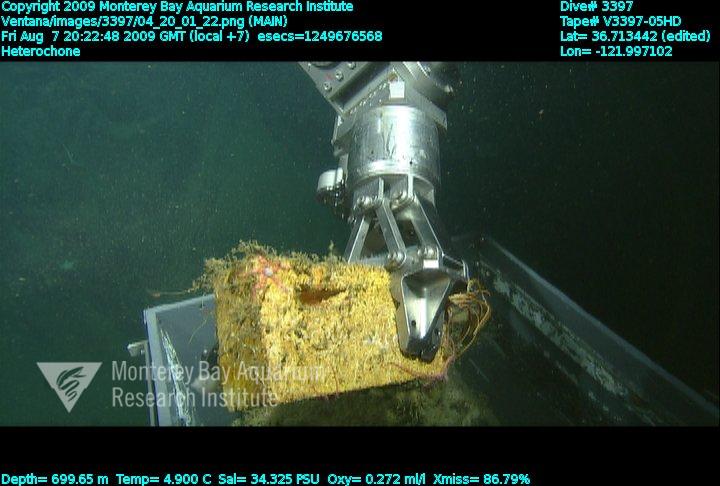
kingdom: Animalia
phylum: Porifera
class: Hexactinellida
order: Sceptrulophora
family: Aphrocallistidae
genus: Heterochone
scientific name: Heterochone
